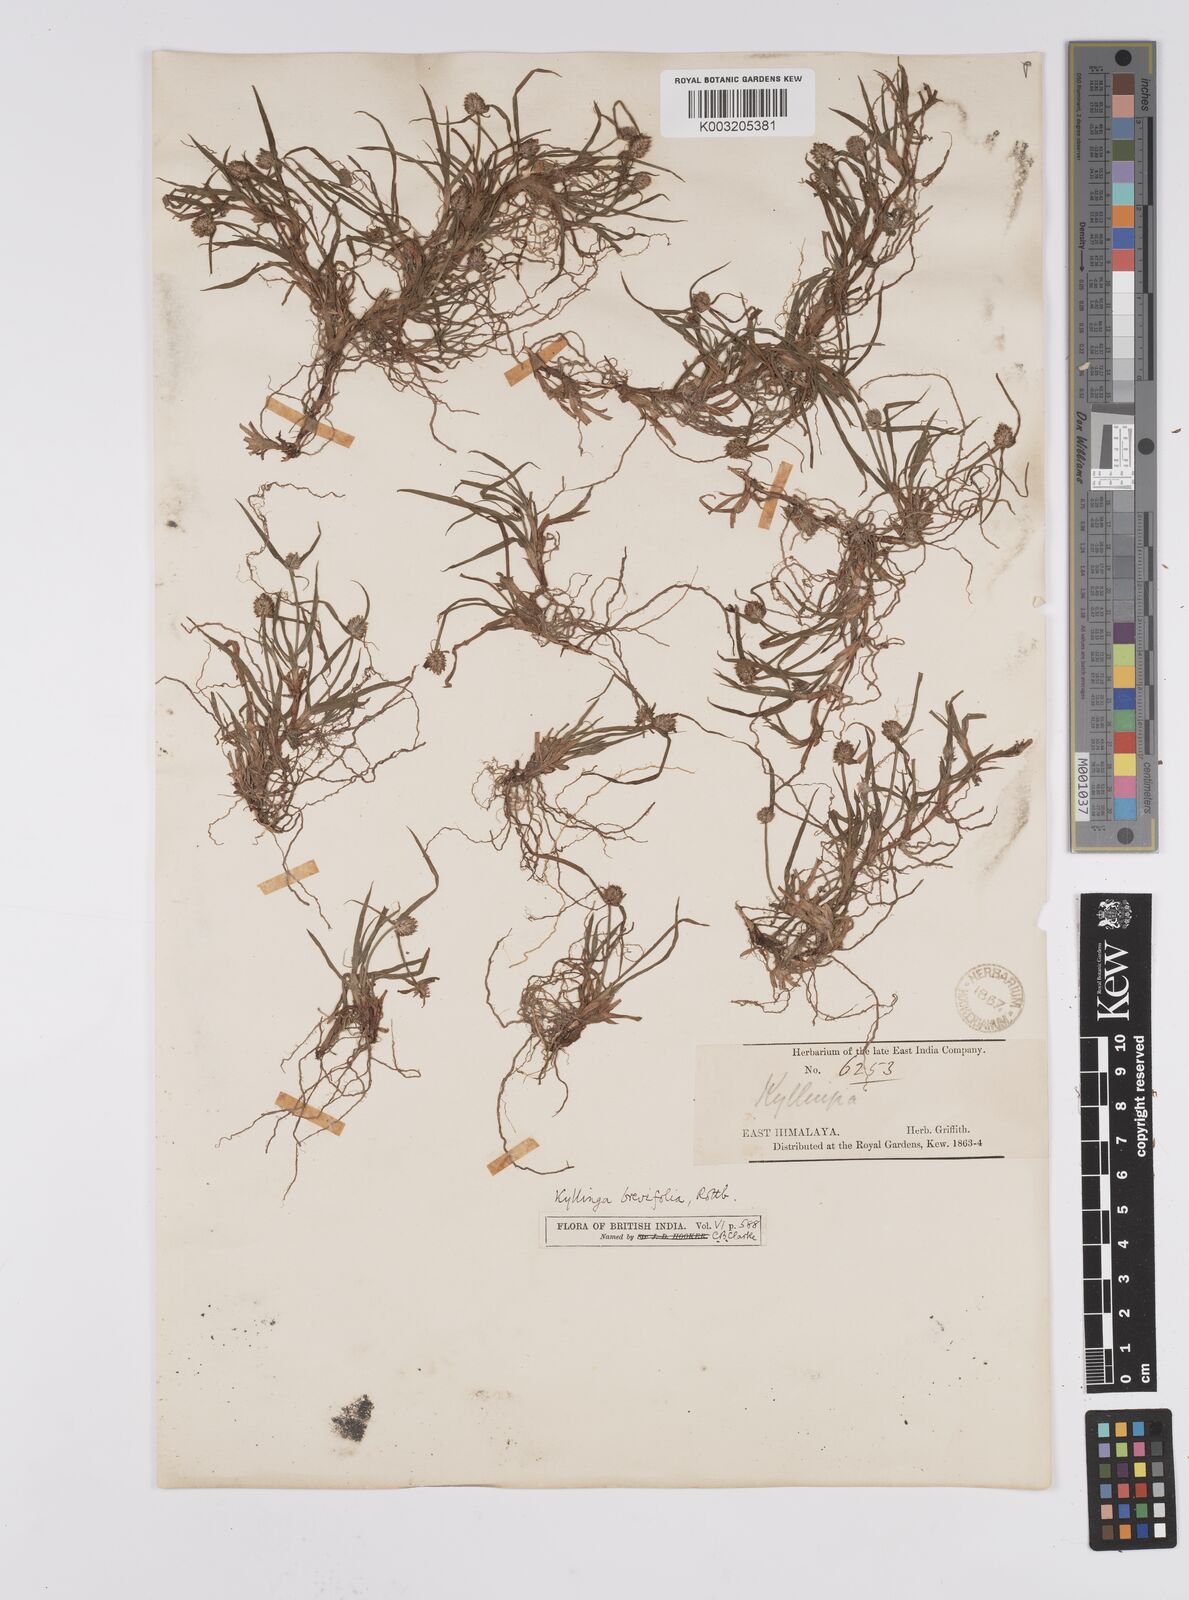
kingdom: Plantae
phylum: Tracheophyta
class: Liliopsida
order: Poales
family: Cyperaceae
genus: Cyperus
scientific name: Cyperus brevifolius
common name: Globe kyllinga
